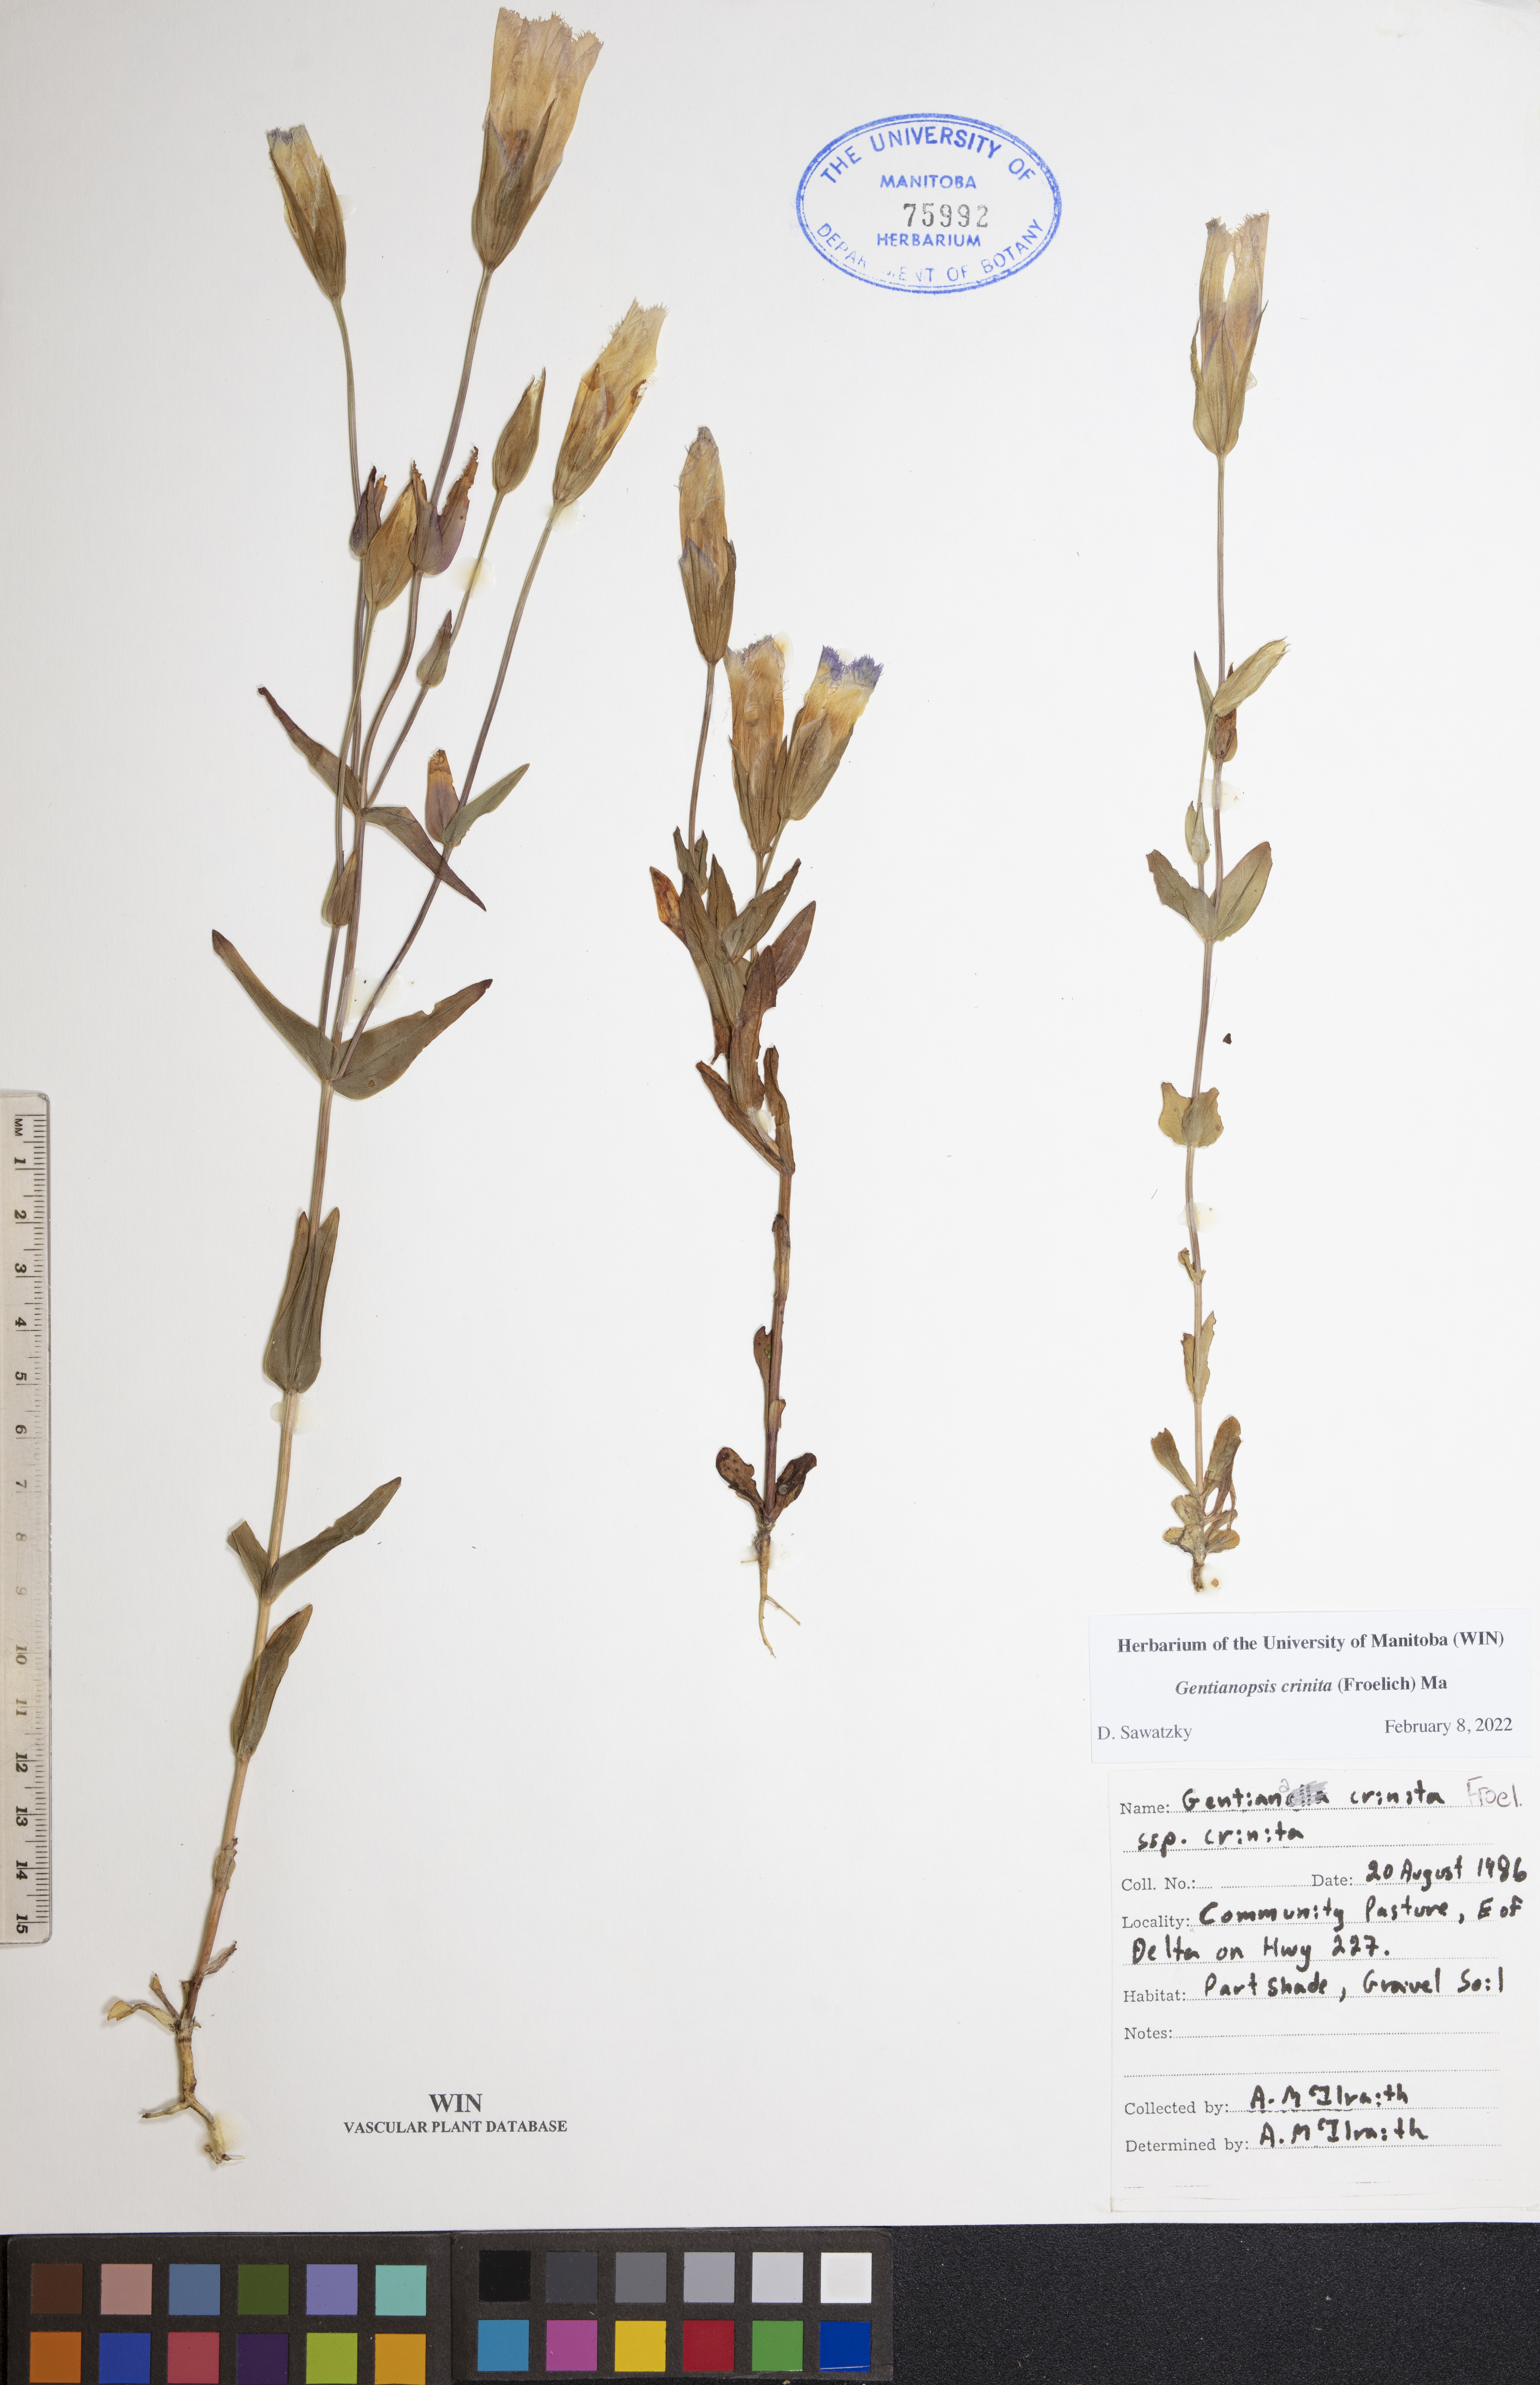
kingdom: Plantae
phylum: Tracheophyta
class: Magnoliopsida
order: Gentianales
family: Gentianaceae
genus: Gentianopsis
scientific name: Gentianopsis crinita
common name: Fringed-gentian
